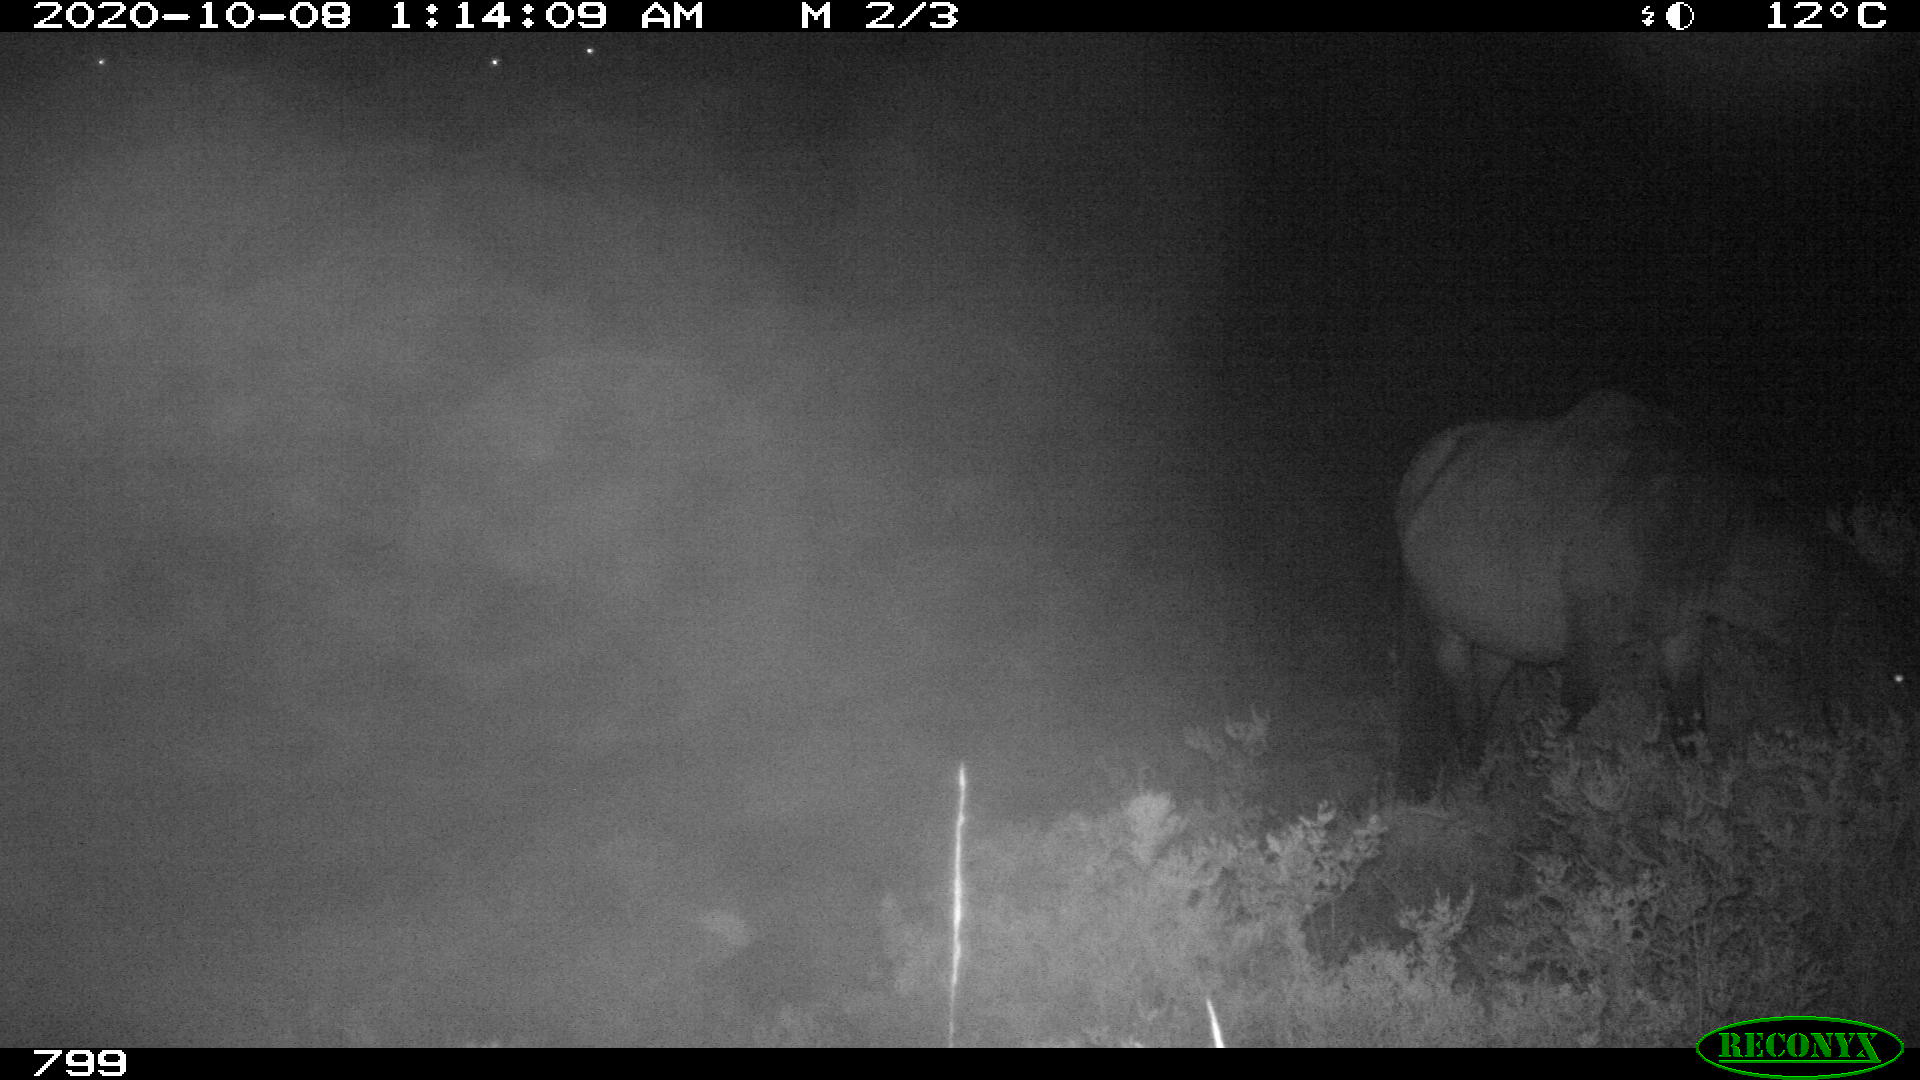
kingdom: Animalia
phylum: Chordata
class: Mammalia
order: Perissodactyla
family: Equidae
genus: Equus
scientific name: Equus caballus
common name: Horse
